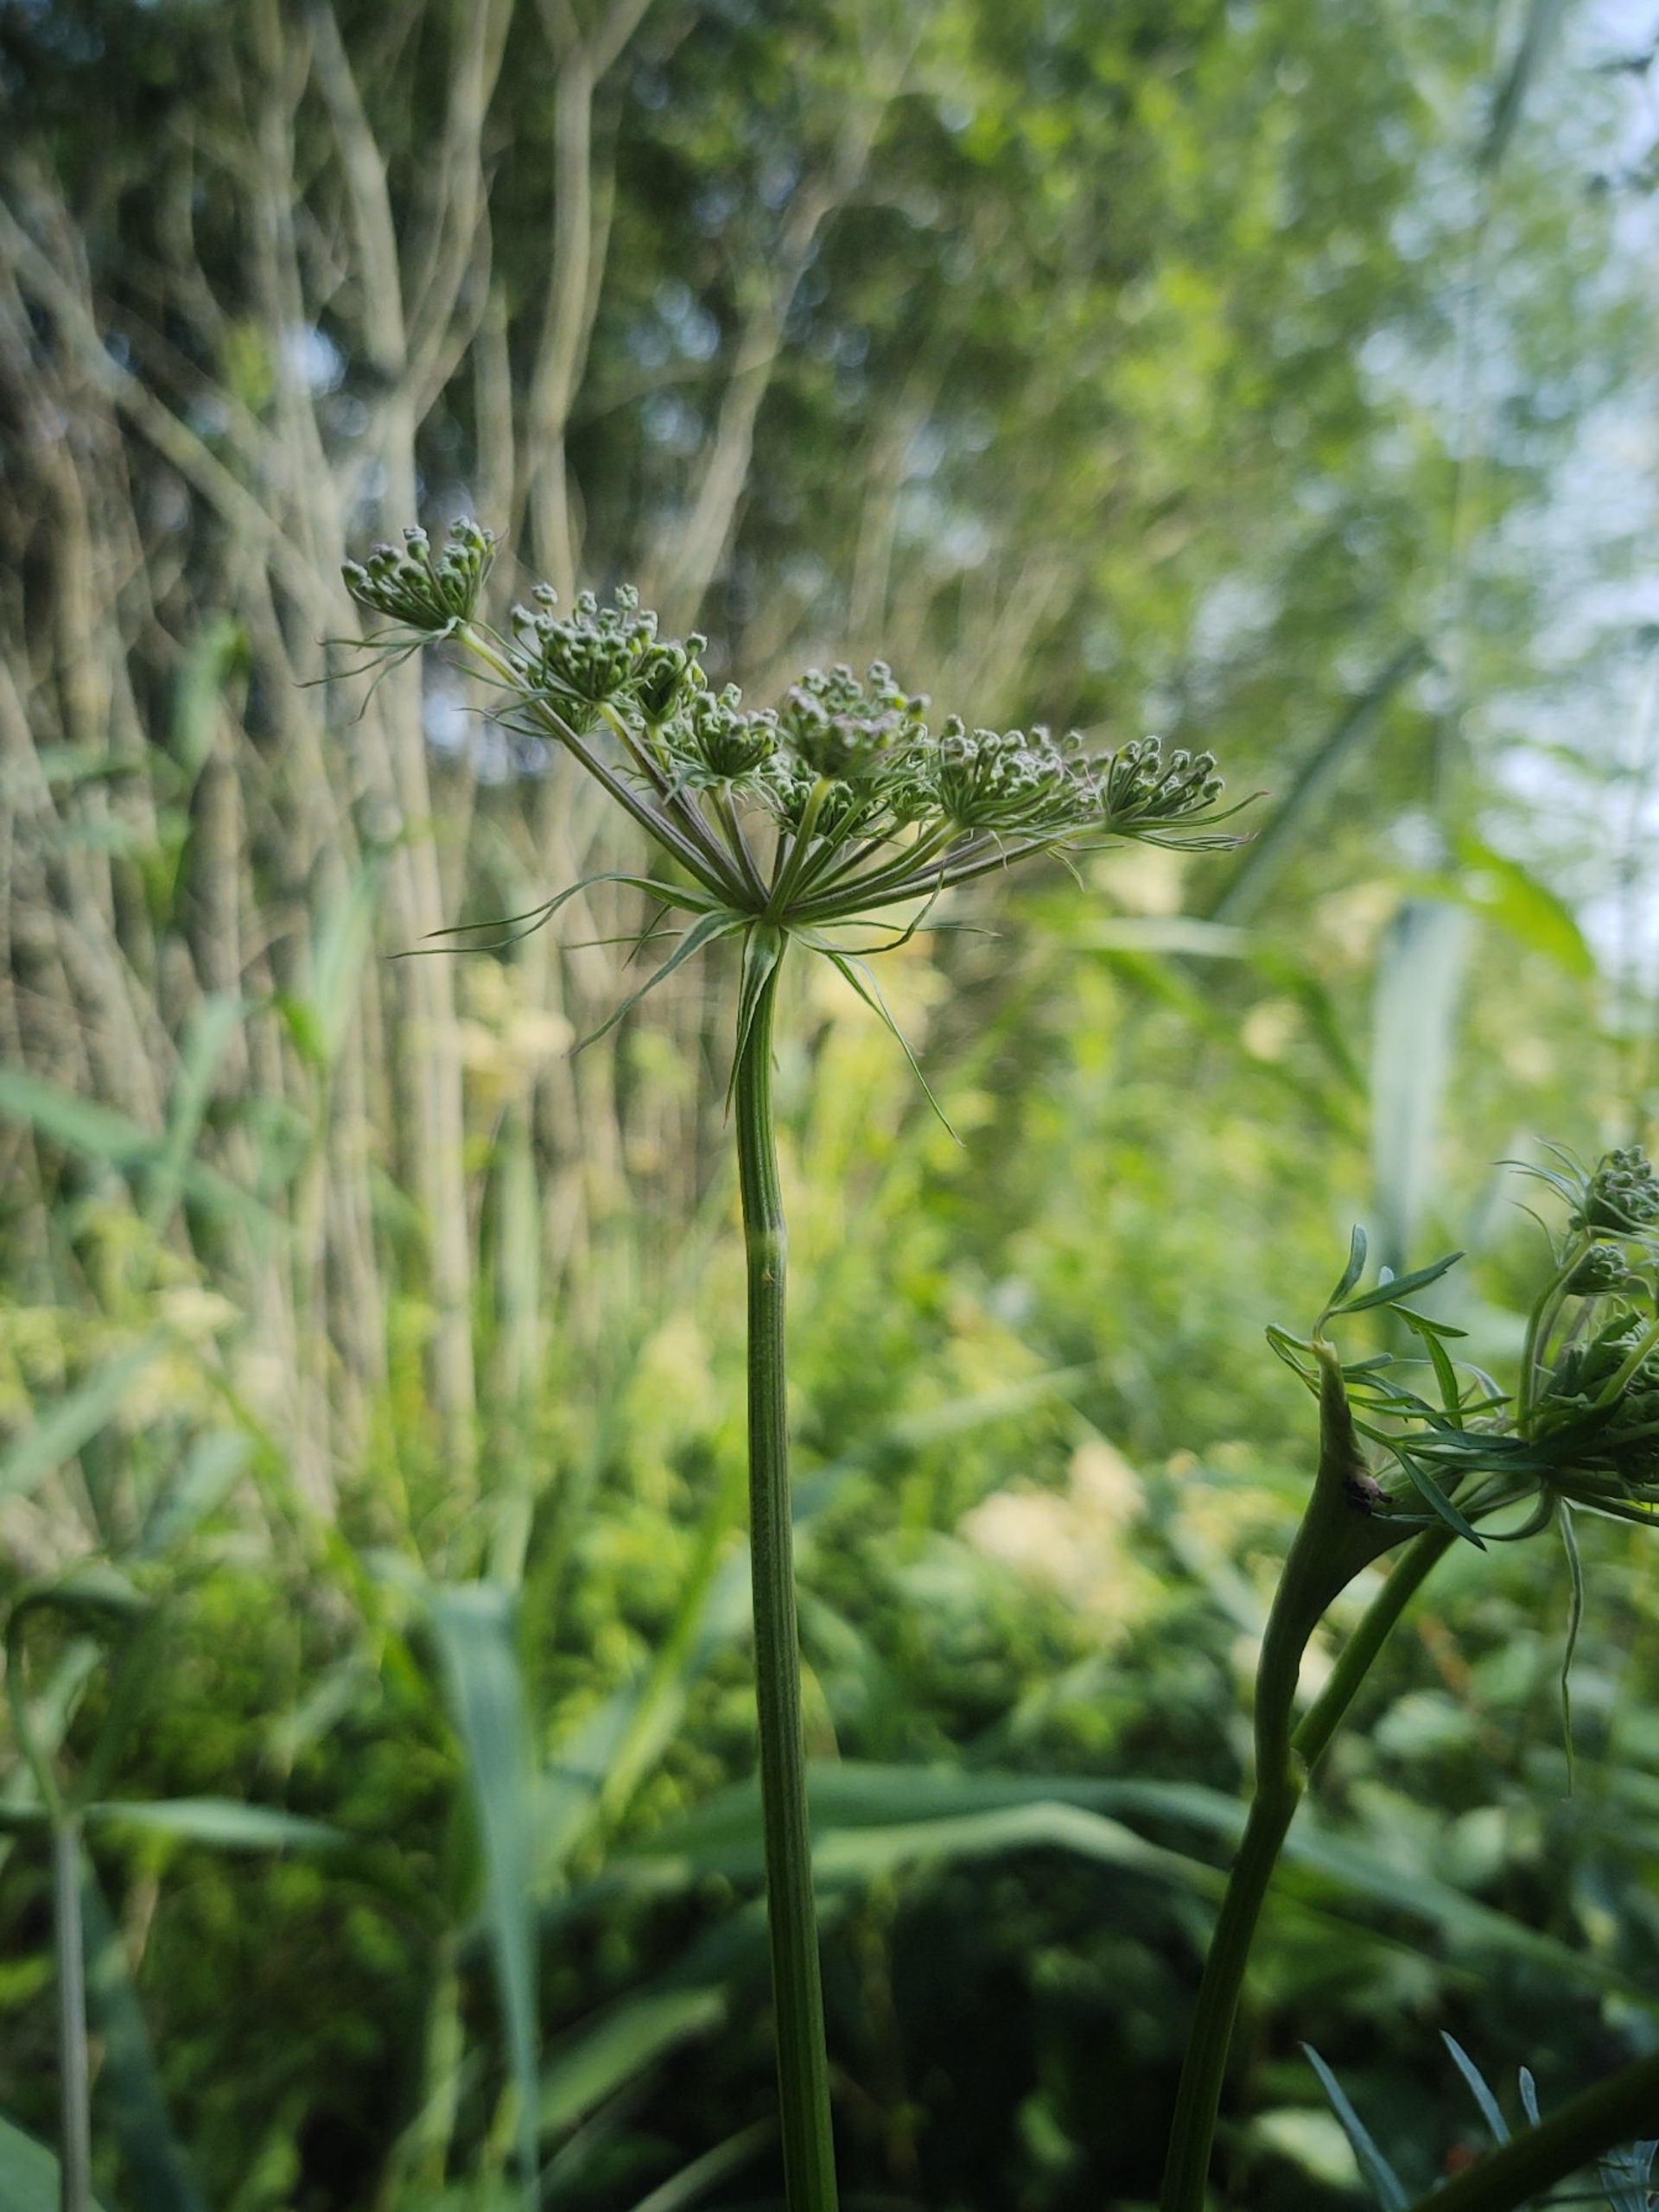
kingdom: Plantae
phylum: Tracheophyta
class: Magnoliopsida
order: Apiales
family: Apiaceae
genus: Thysselinum
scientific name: Thysselinum palustre
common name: Kær-svovlrod
